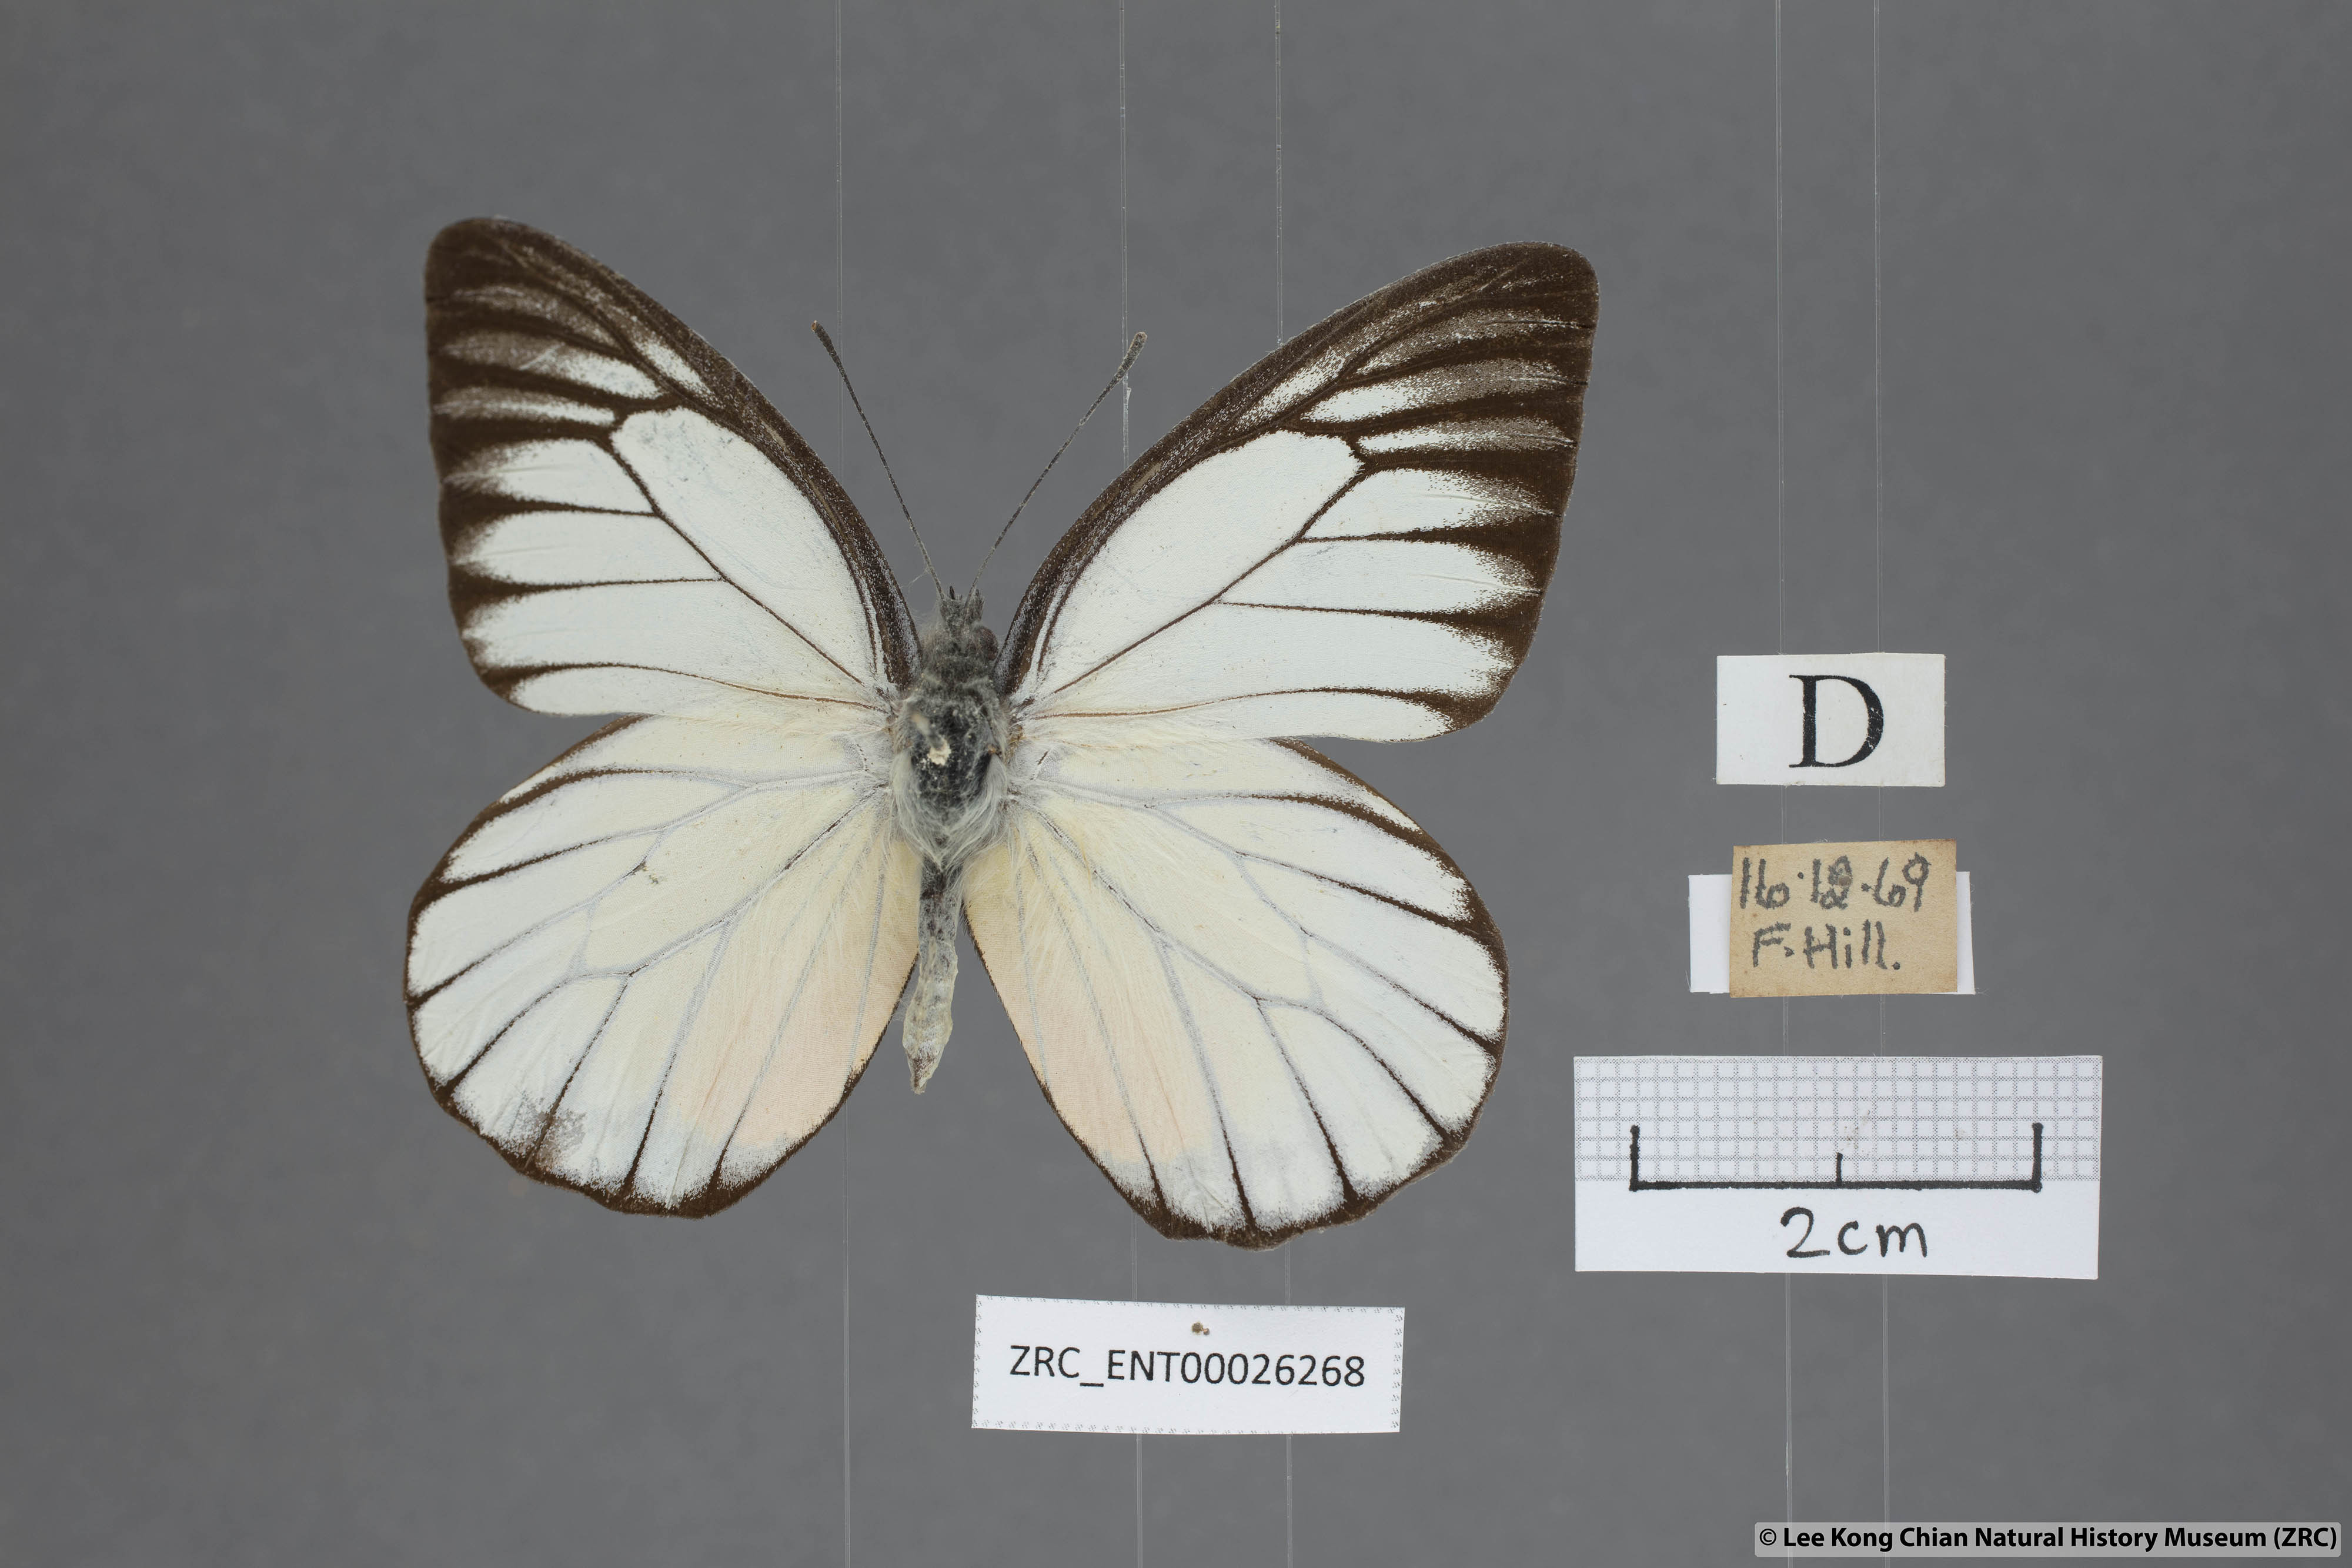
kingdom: Animalia
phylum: Arthropoda
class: Insecta
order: Lepidoptera
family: Pieridae
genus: Prioneris
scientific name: Prioneris philonome
